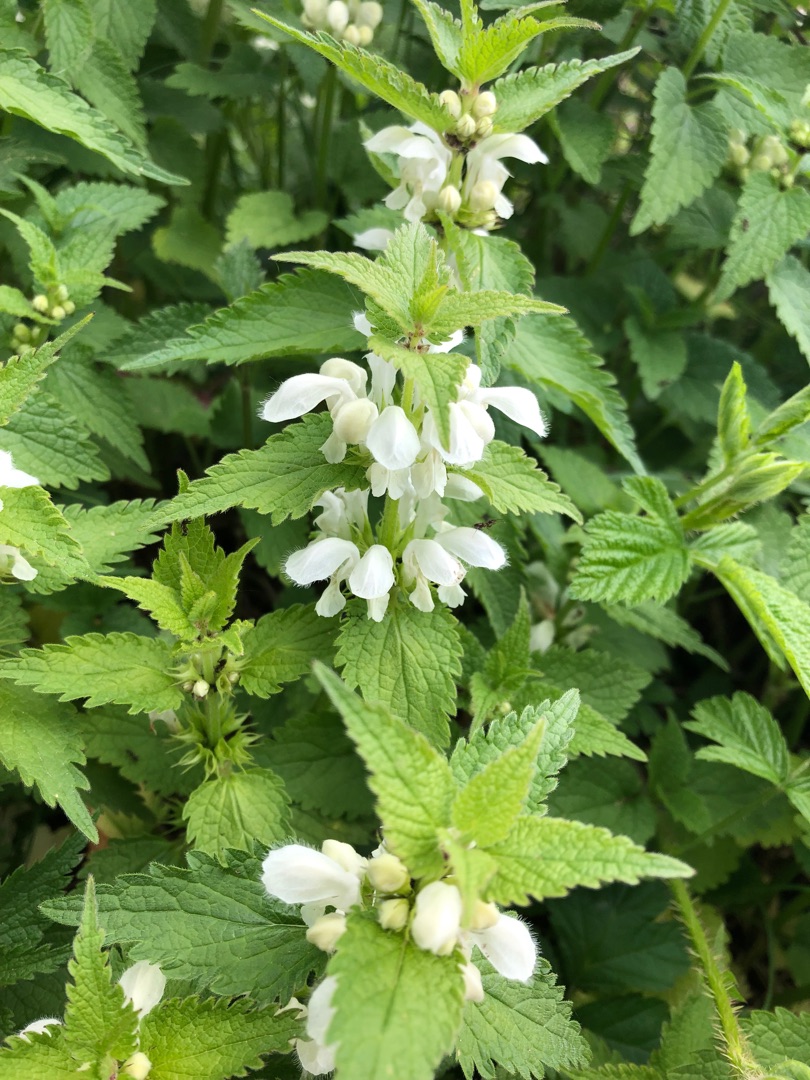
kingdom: Plantae
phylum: Tracheophyta
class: Magnoliopsida
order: Lamiales
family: Lamiaceae
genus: Lamium
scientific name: Lamium album
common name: Døvnælde
